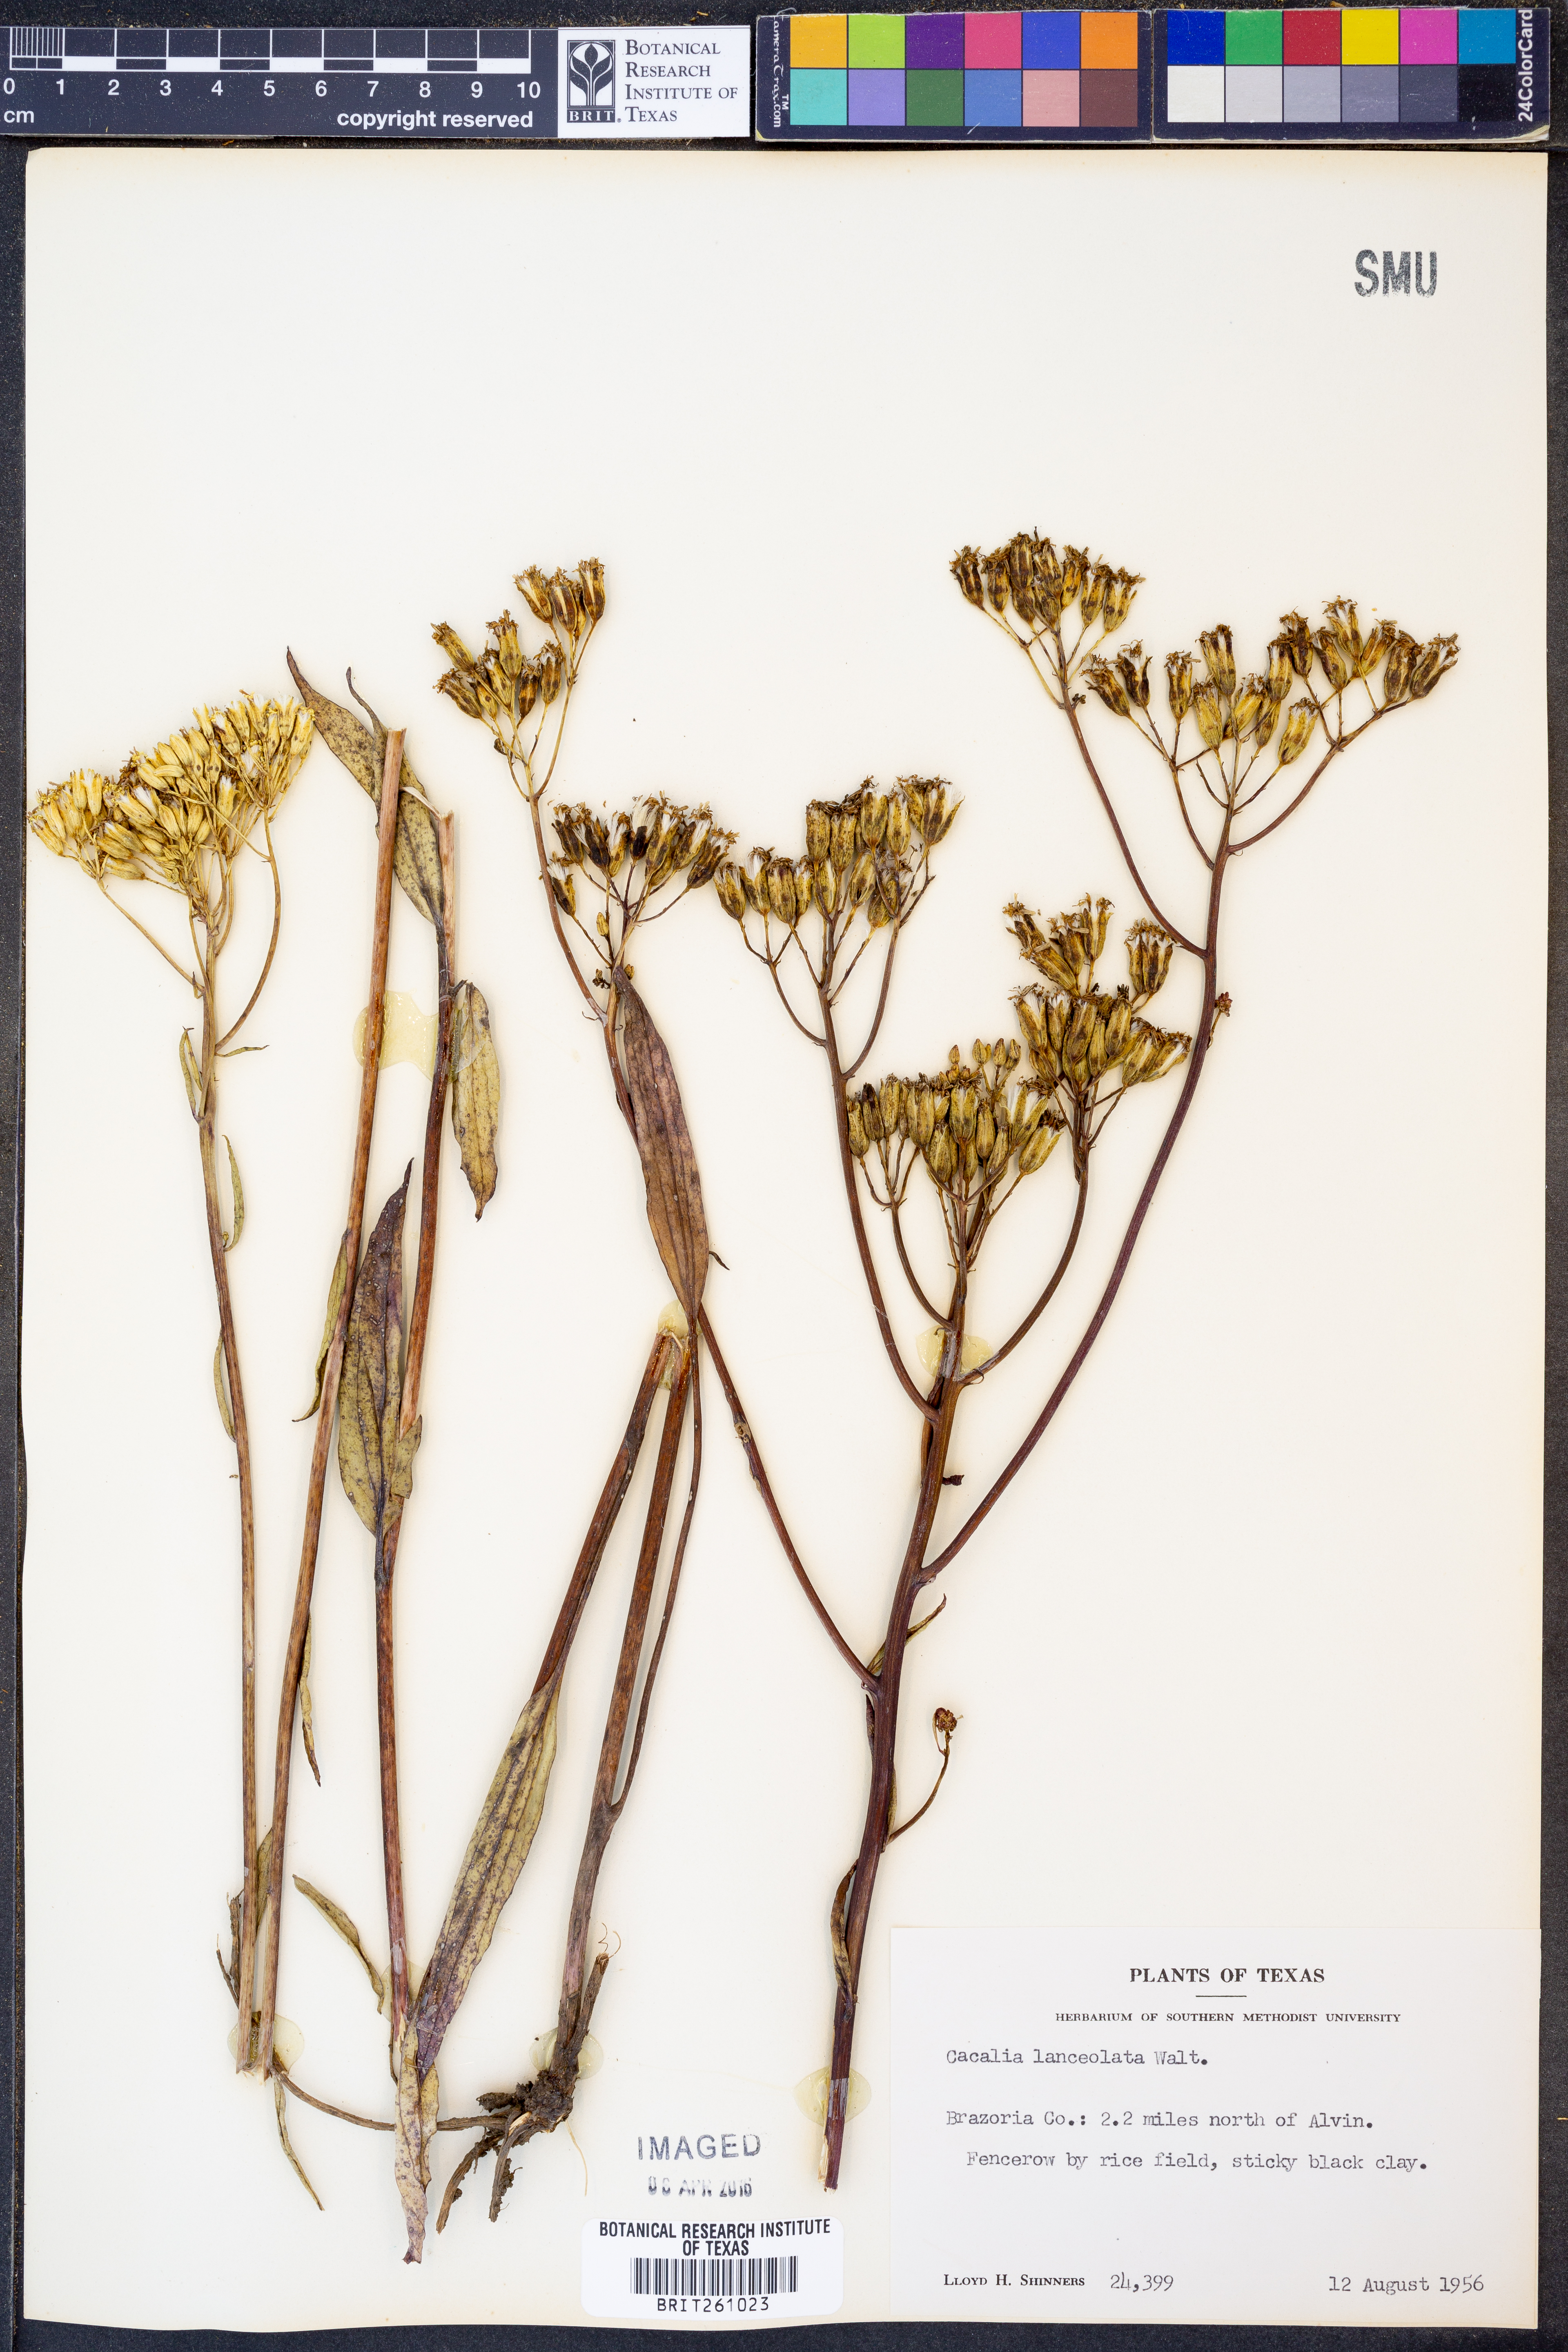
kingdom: Plantae
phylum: Tracheophyta
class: Magnoliopsida
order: Asterales
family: Asteraceae
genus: Arnoglossum
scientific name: Arnoglossum ovatum
